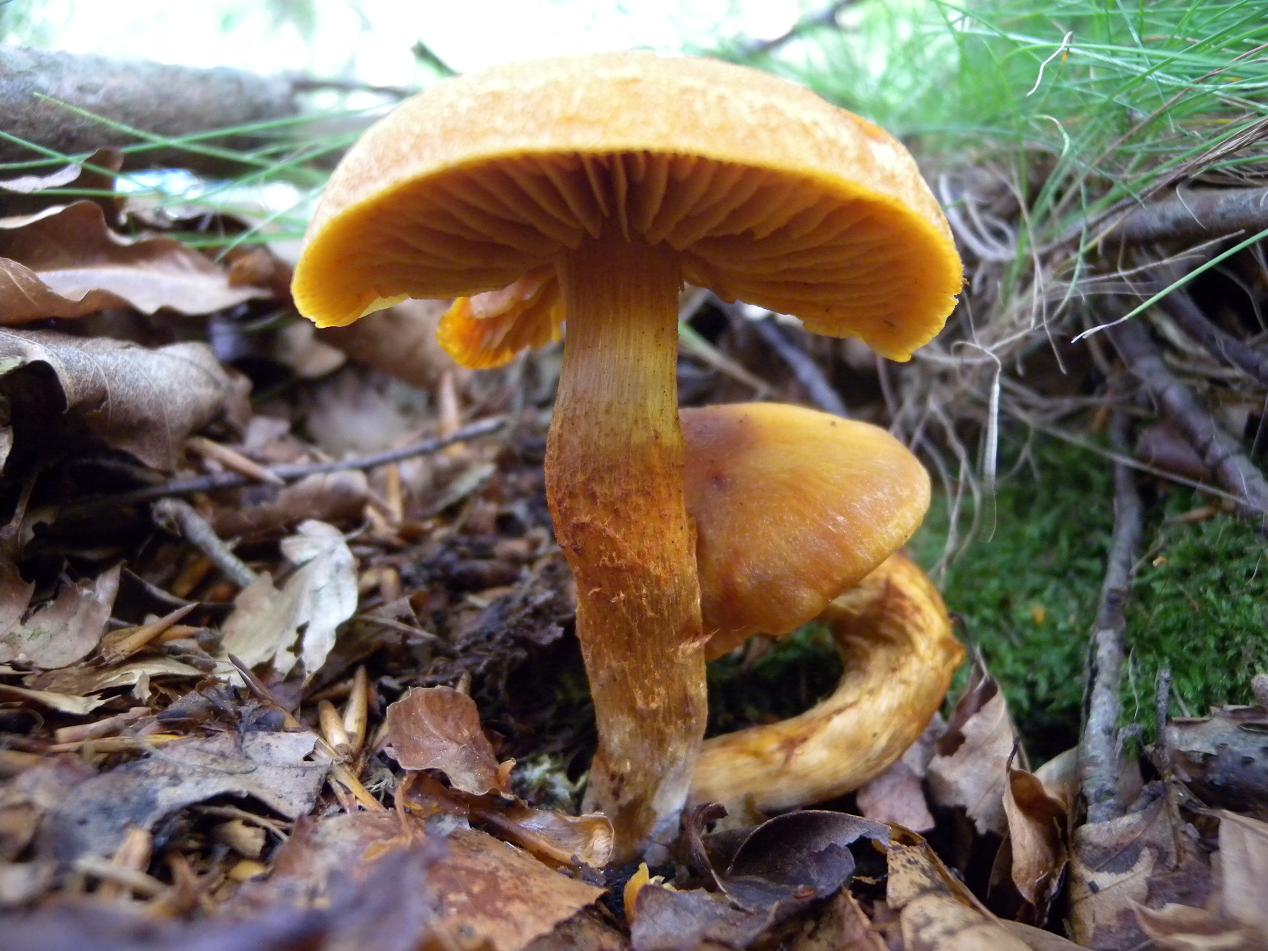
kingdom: Fungi
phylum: Basidiomycota
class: Agaricomycetes
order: Agaricales
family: Cortinariaceae
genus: Aureonarius
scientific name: Aureonarius limonius
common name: orangegul slørhat
